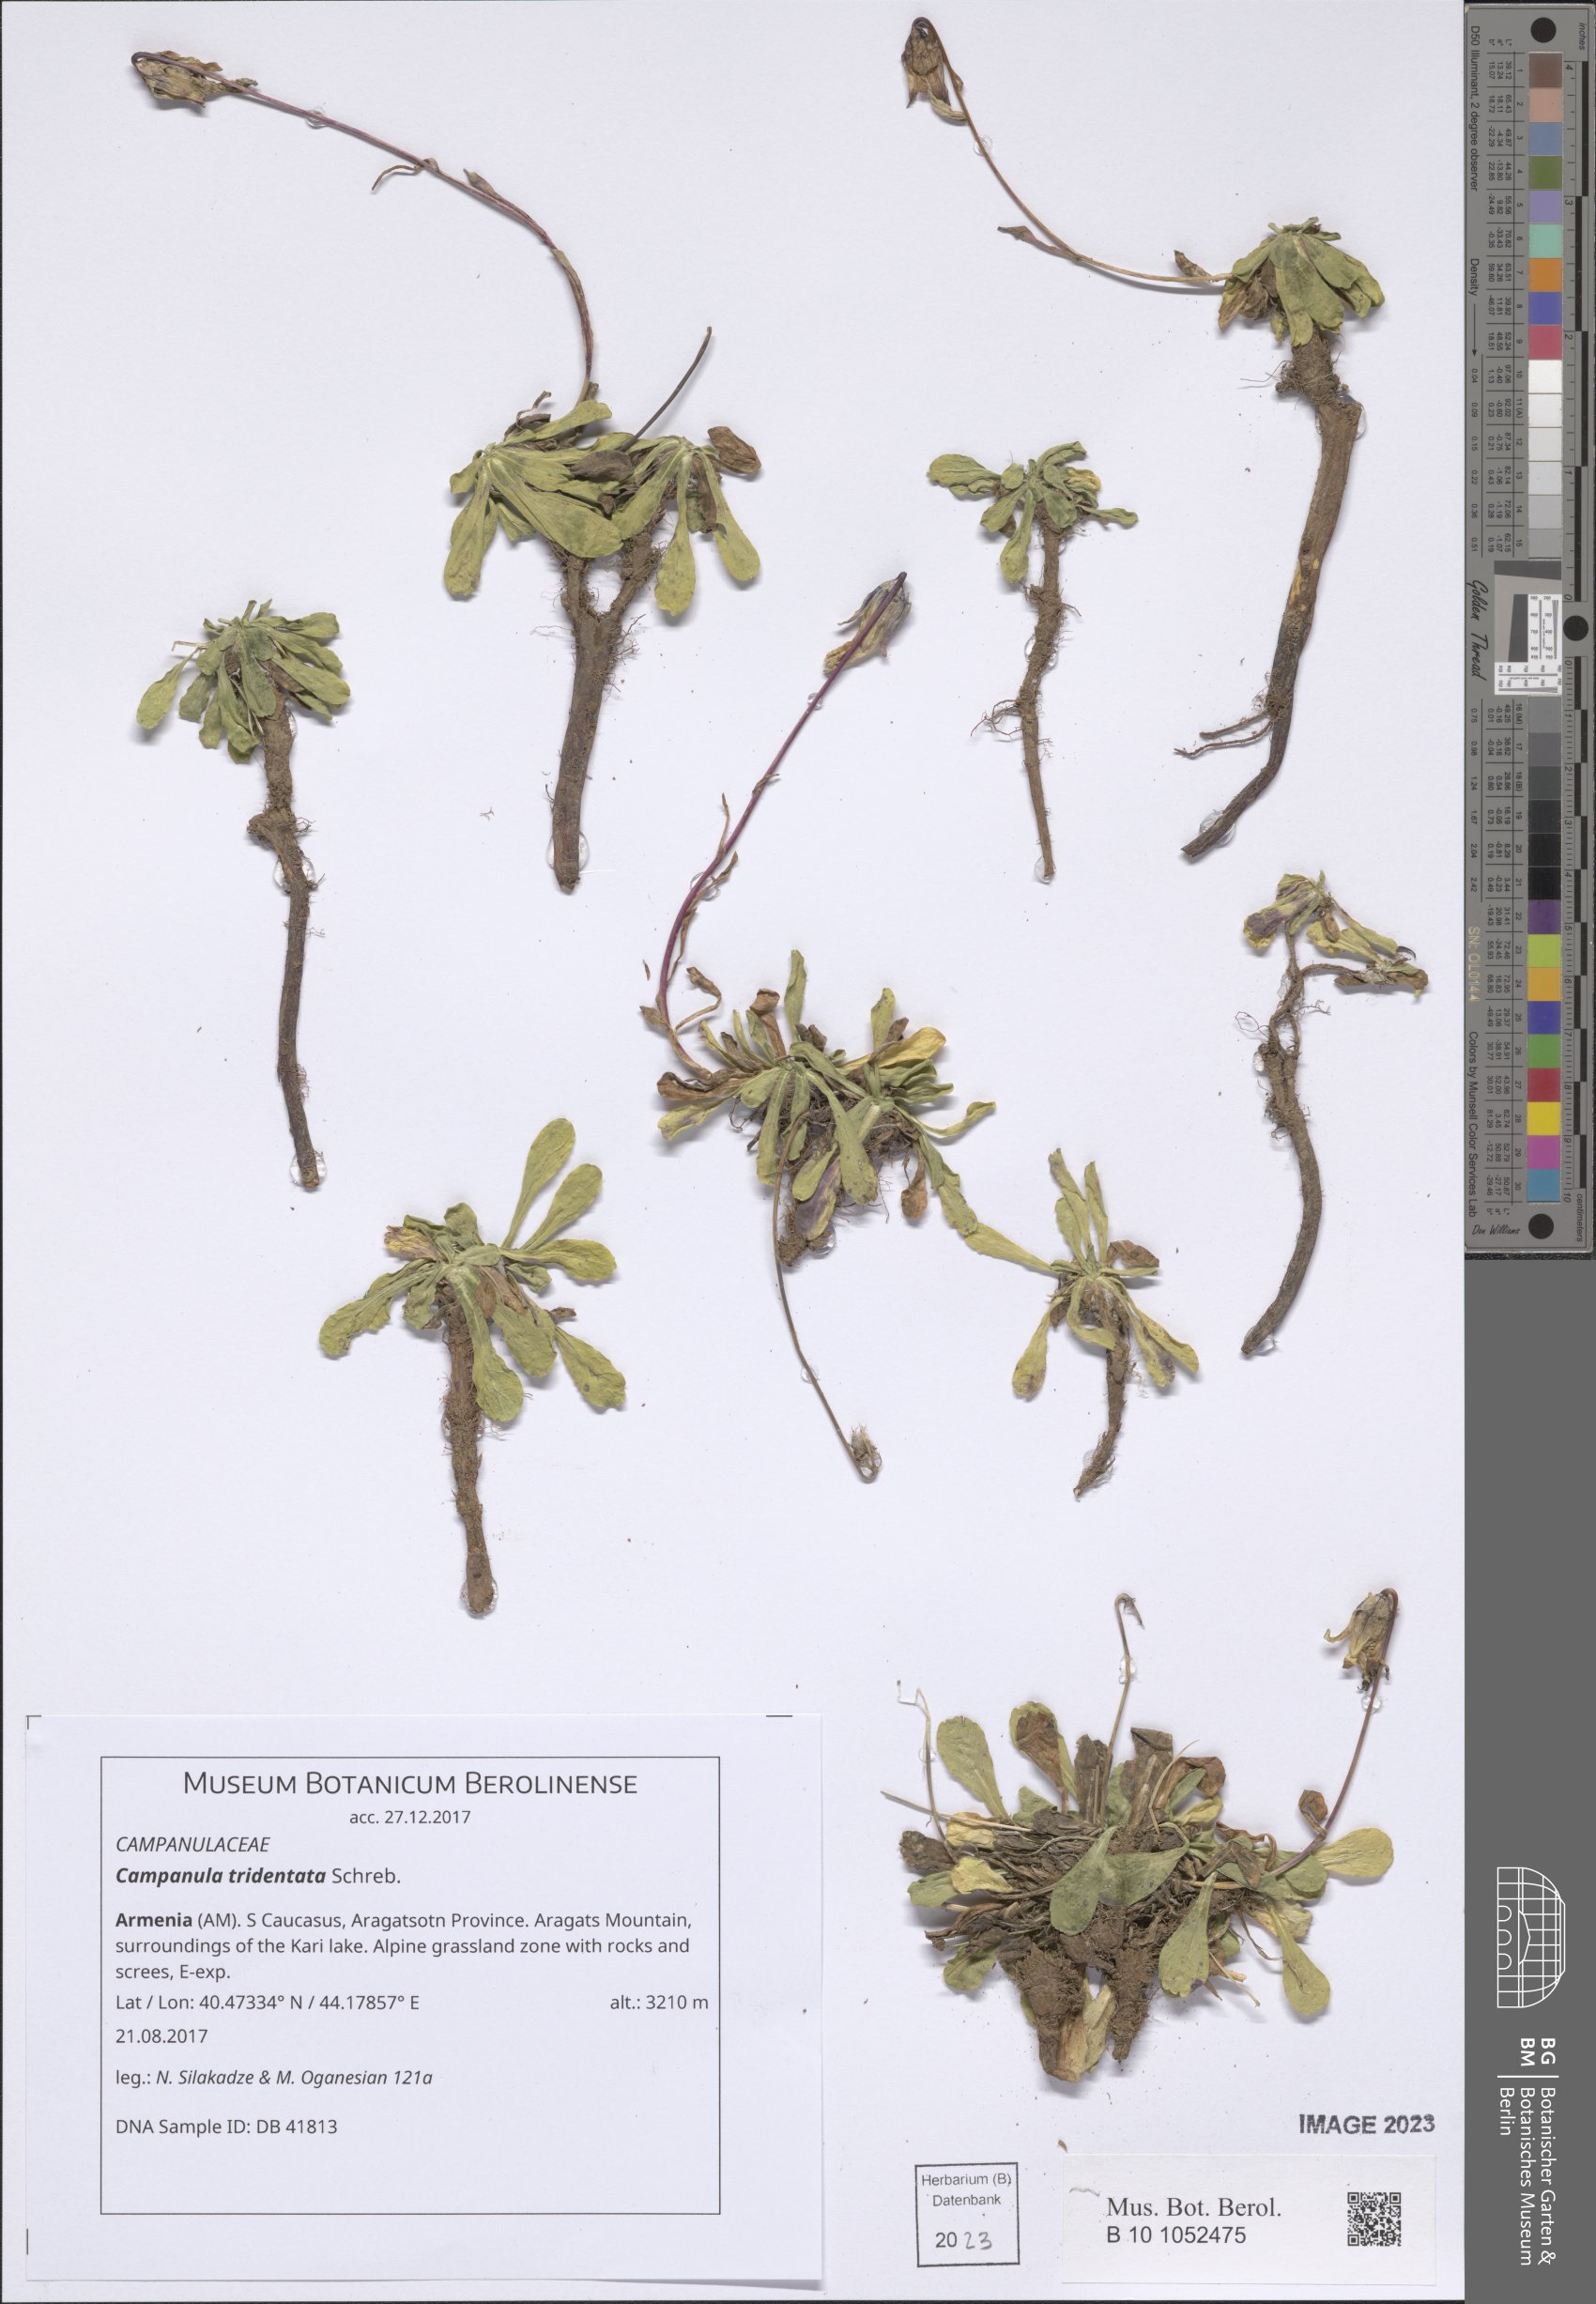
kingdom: Plantae
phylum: Tracheophyta
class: Magnoliopsida
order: Asterales
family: Campanulaceae
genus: Campanula
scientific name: Campanula tridentata
